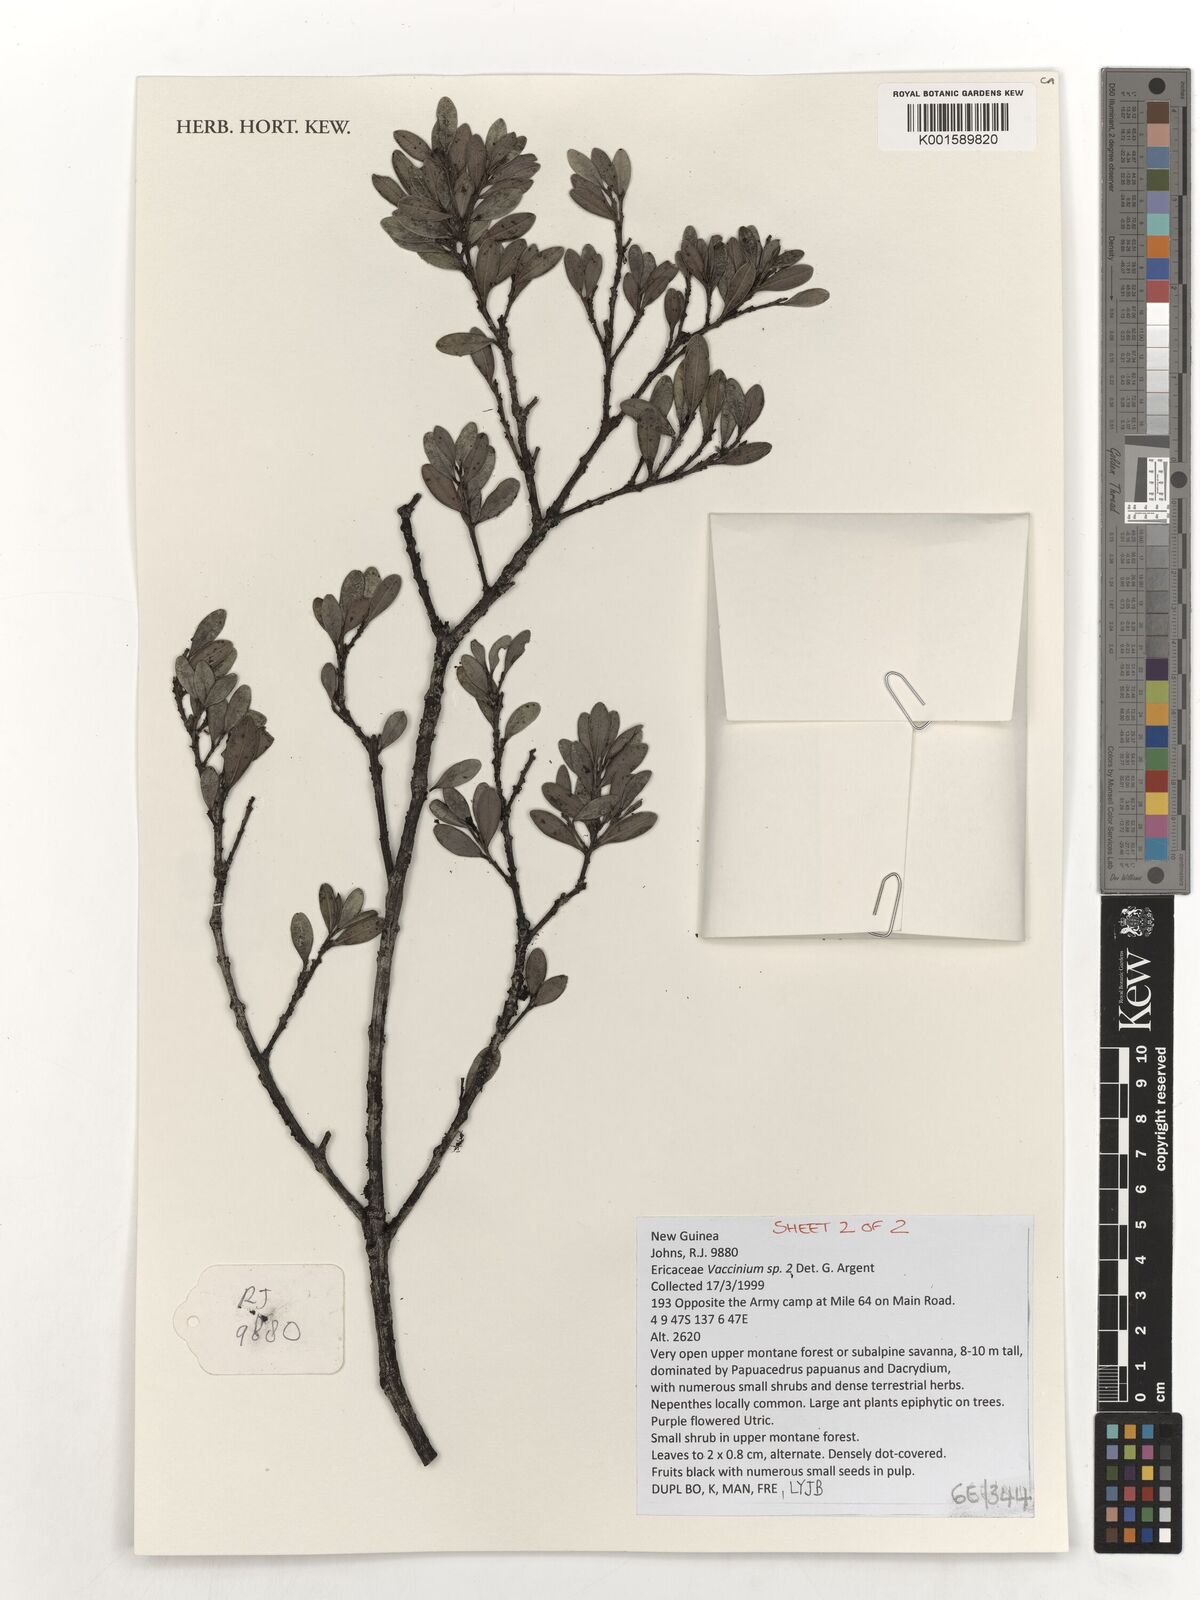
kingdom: Plantae
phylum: Tracheophyta
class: Magnoliopsida
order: Ericales
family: Ericaceae
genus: Vaccinium
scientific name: Vaccinium
